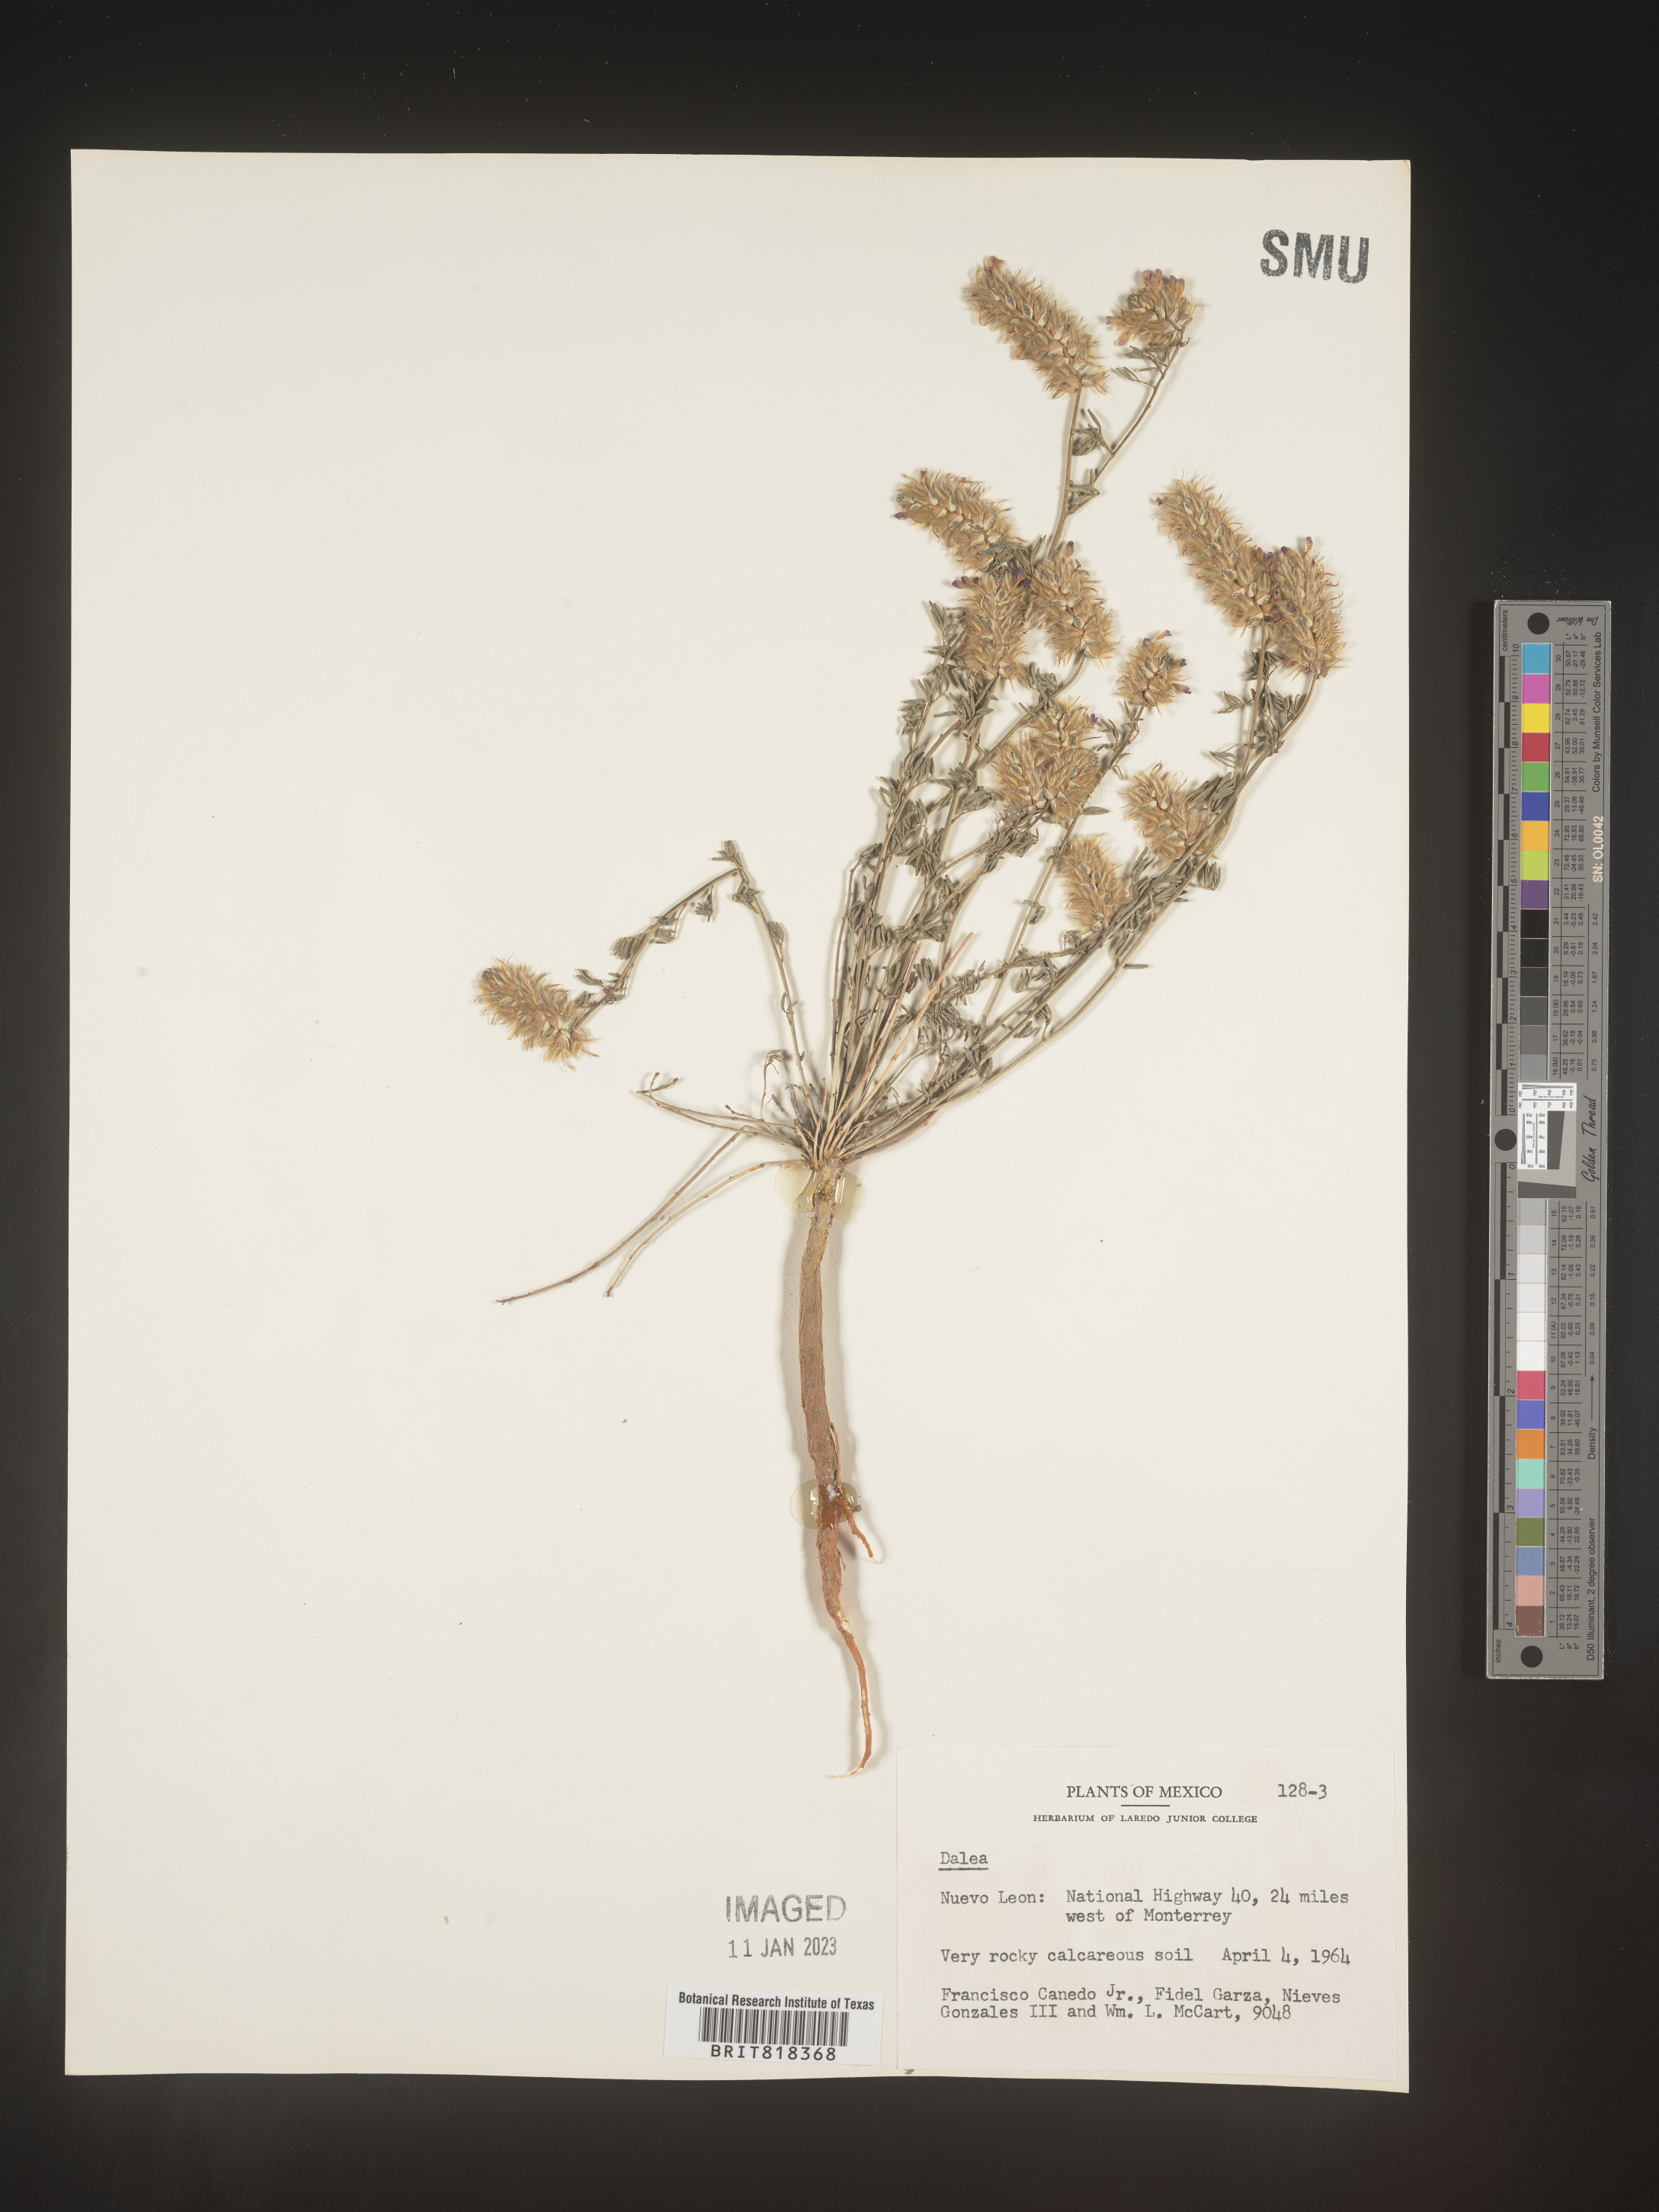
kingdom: Plantae
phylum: Tracheophyta
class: Magnoliopsida
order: Fabales
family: Fabaceae
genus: Dalea
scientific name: Dalea
